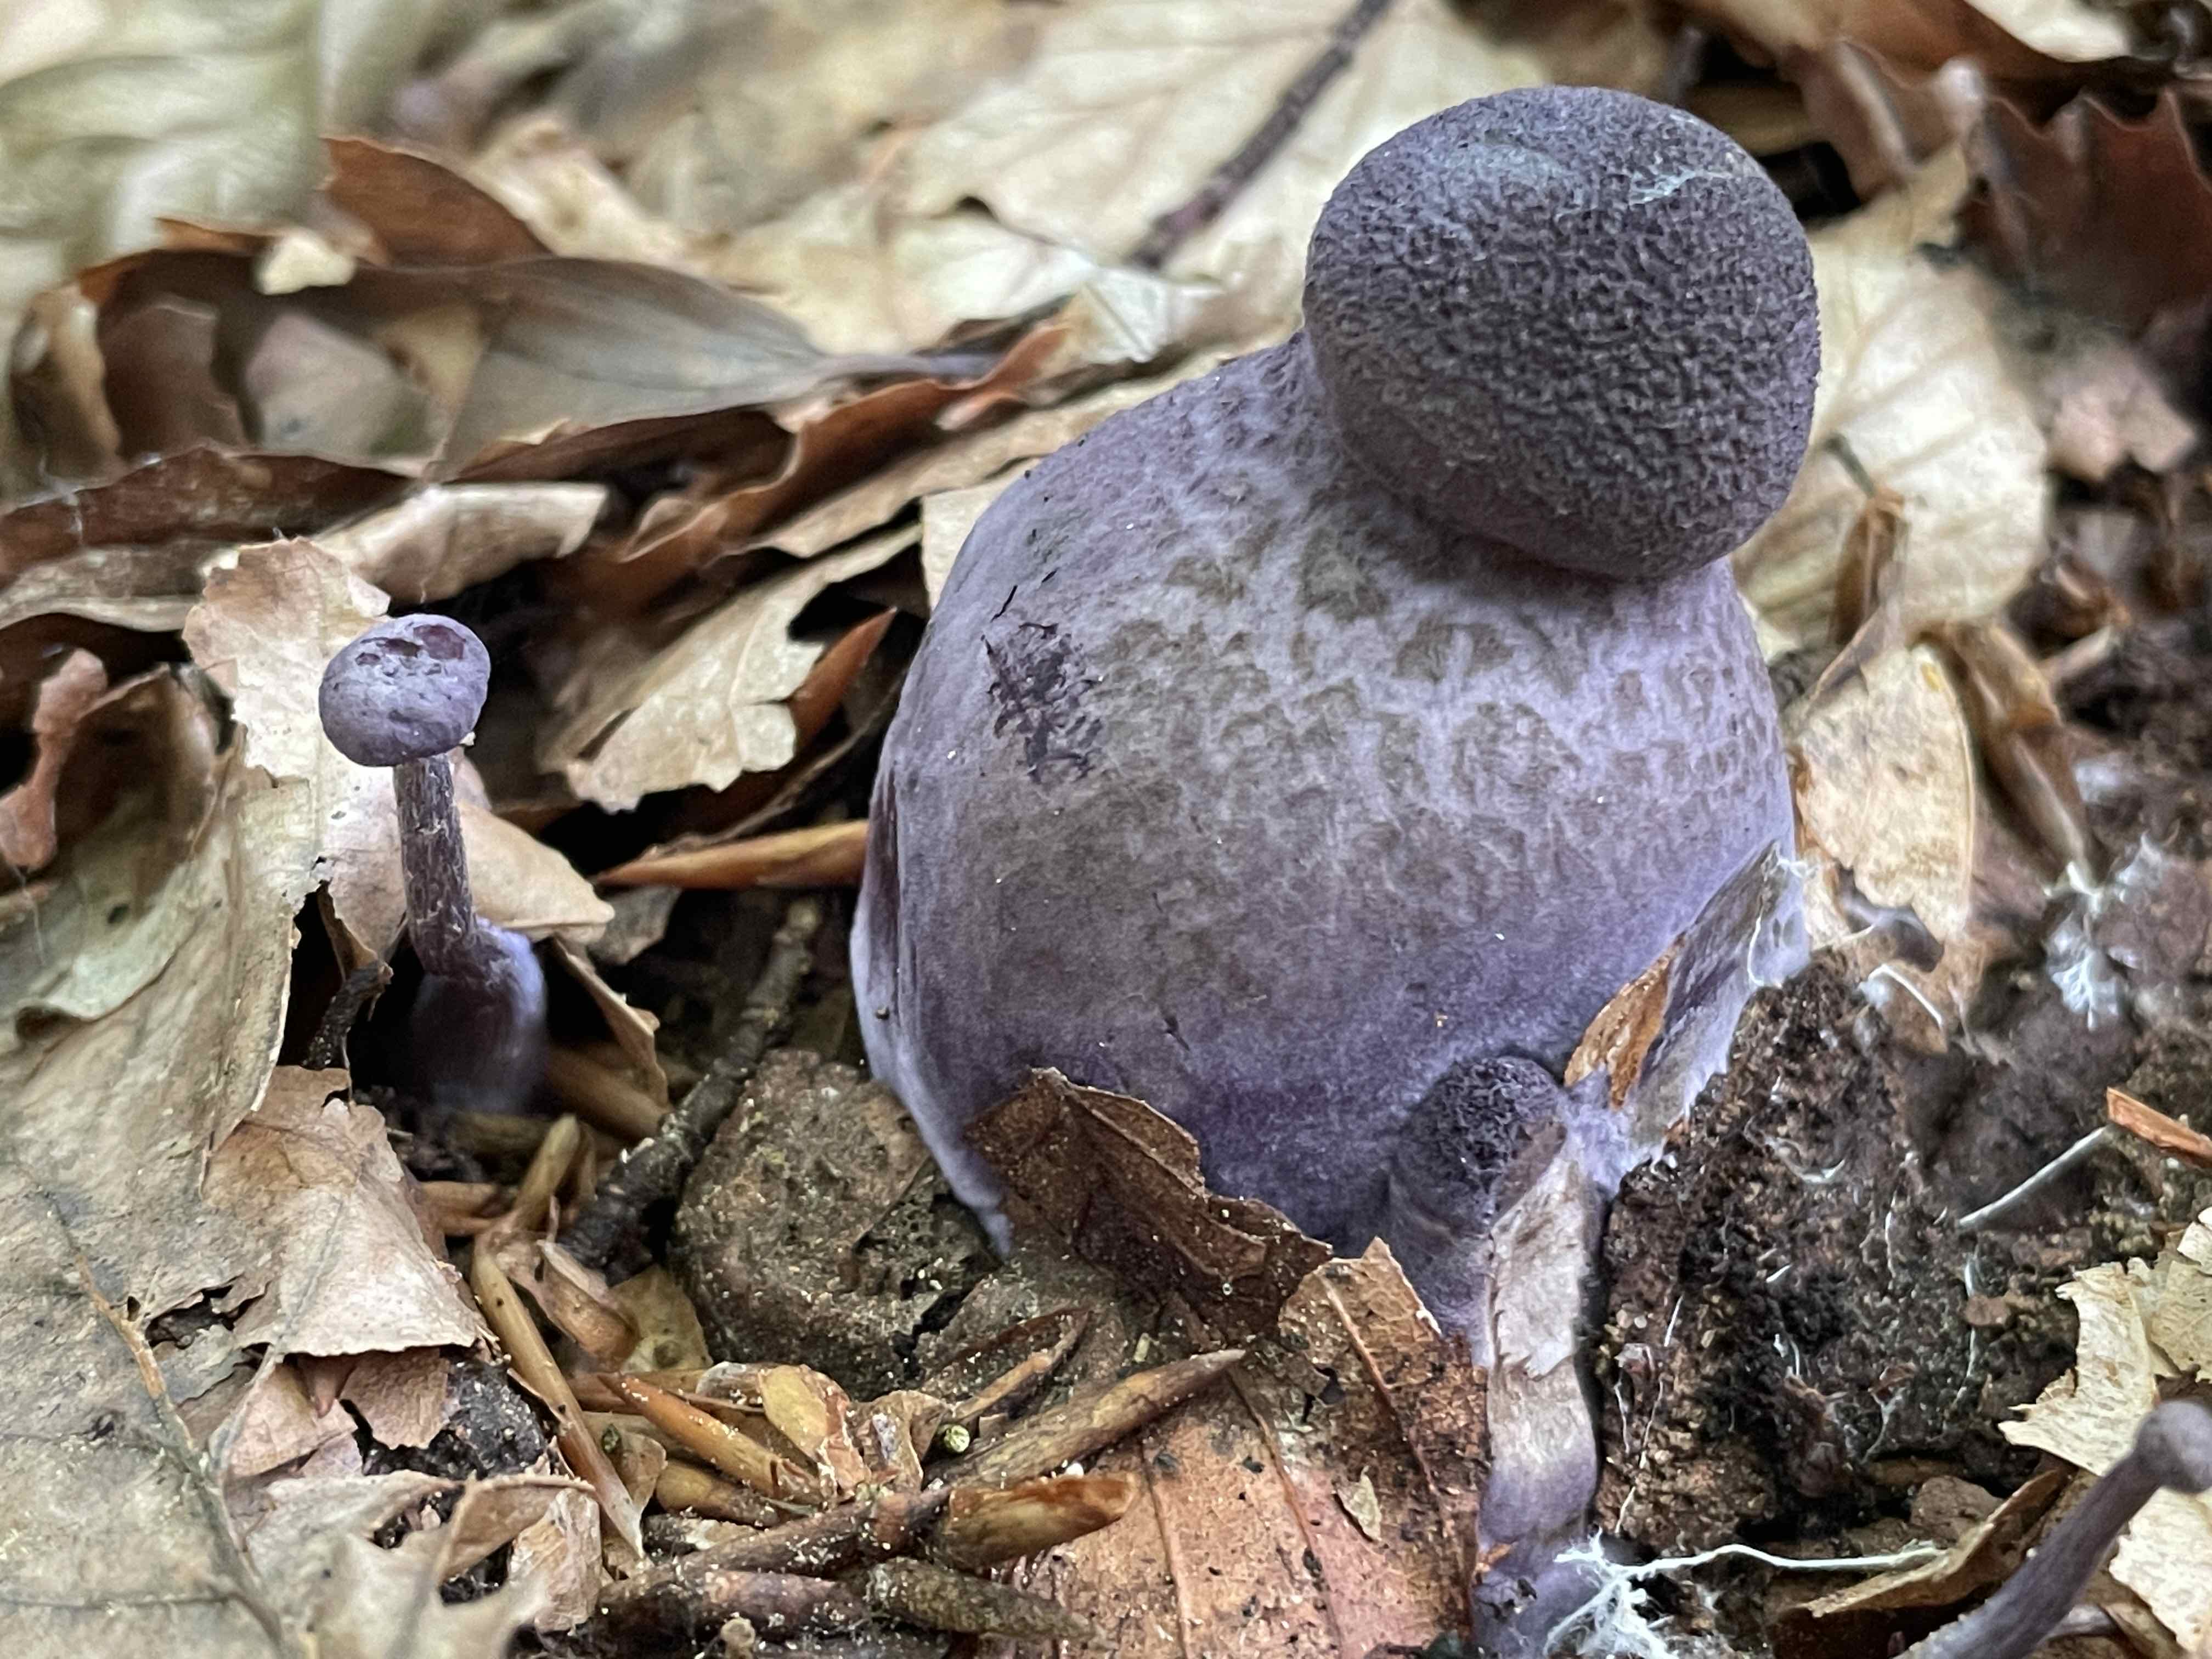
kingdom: Fungi
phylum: Basidiomycota
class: Agaricomycetes
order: Agaricales
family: Cortinariaceae
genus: Cortinarius
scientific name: Cortinarius violaceus
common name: mørkviolet slørhat
